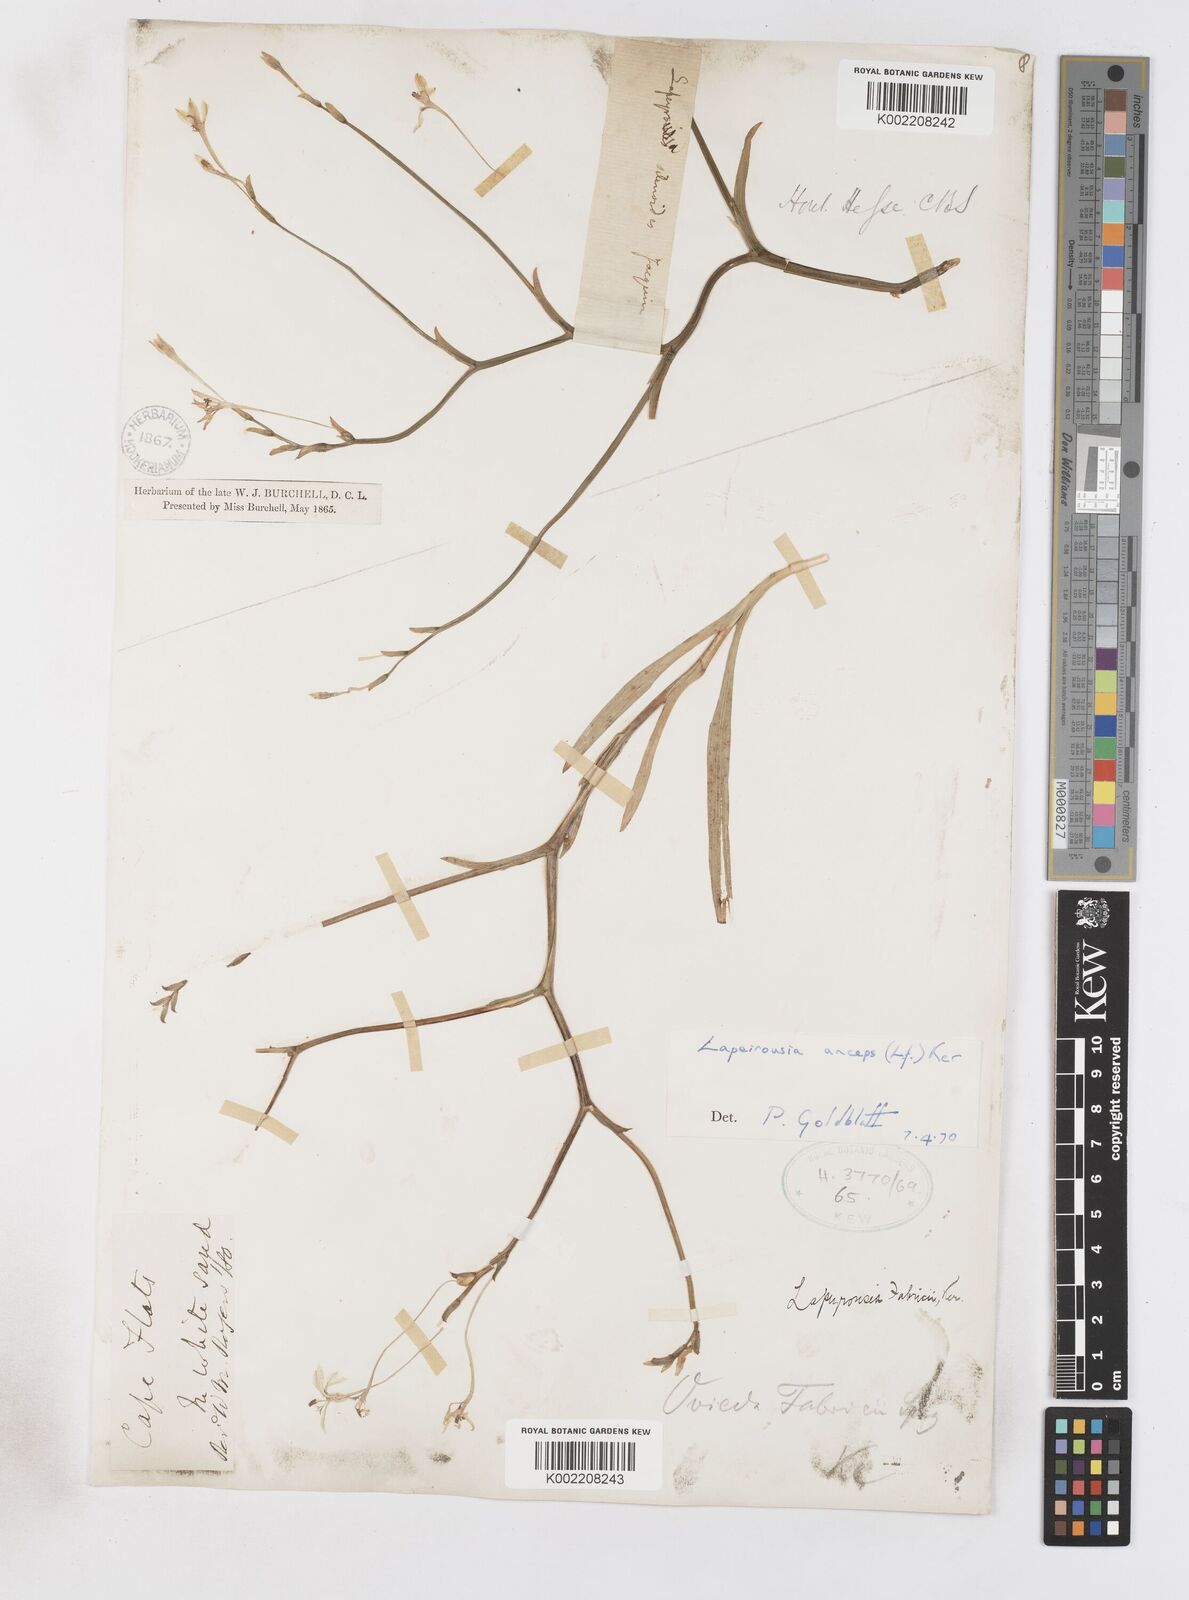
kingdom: Plantae
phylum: Tracheophyta
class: Liliopsida
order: Asparagales
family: Iridaceae
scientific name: Iridaceae
